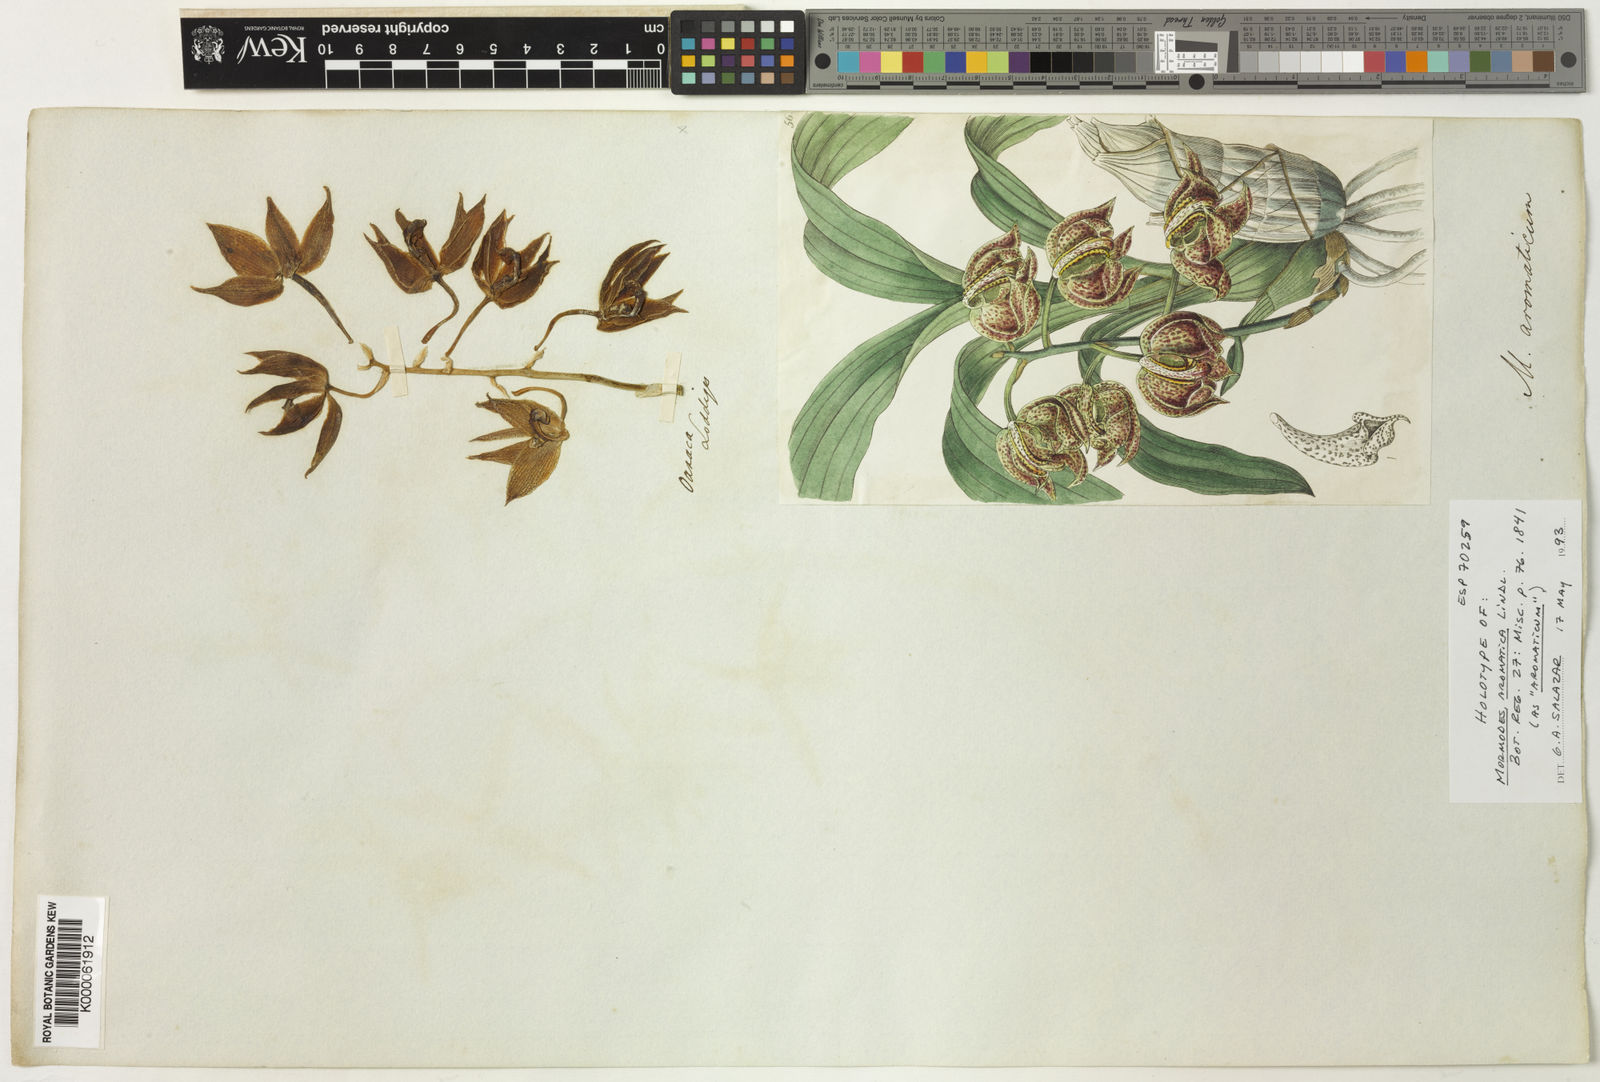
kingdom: Plantae
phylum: Tracheophyta
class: Liliopsida
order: Asparagales
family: Orchidaceae
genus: Mormodes
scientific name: Mormodes hookeri
